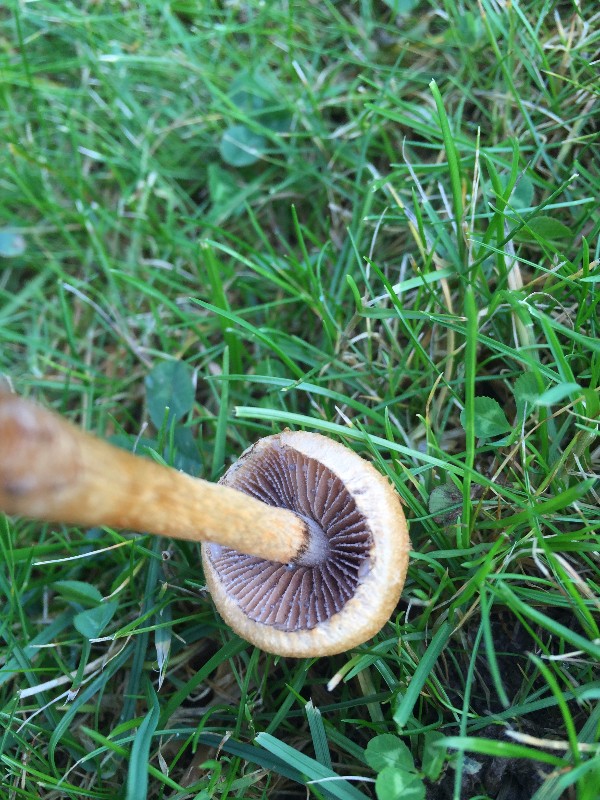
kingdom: Fungi
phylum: Basidiomycota
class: Agaricomycetes
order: Agaricales
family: Psathyrellaceae
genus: Lacrymaria
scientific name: Lacrymaria lacrymabunda
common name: grædende mørkhat
